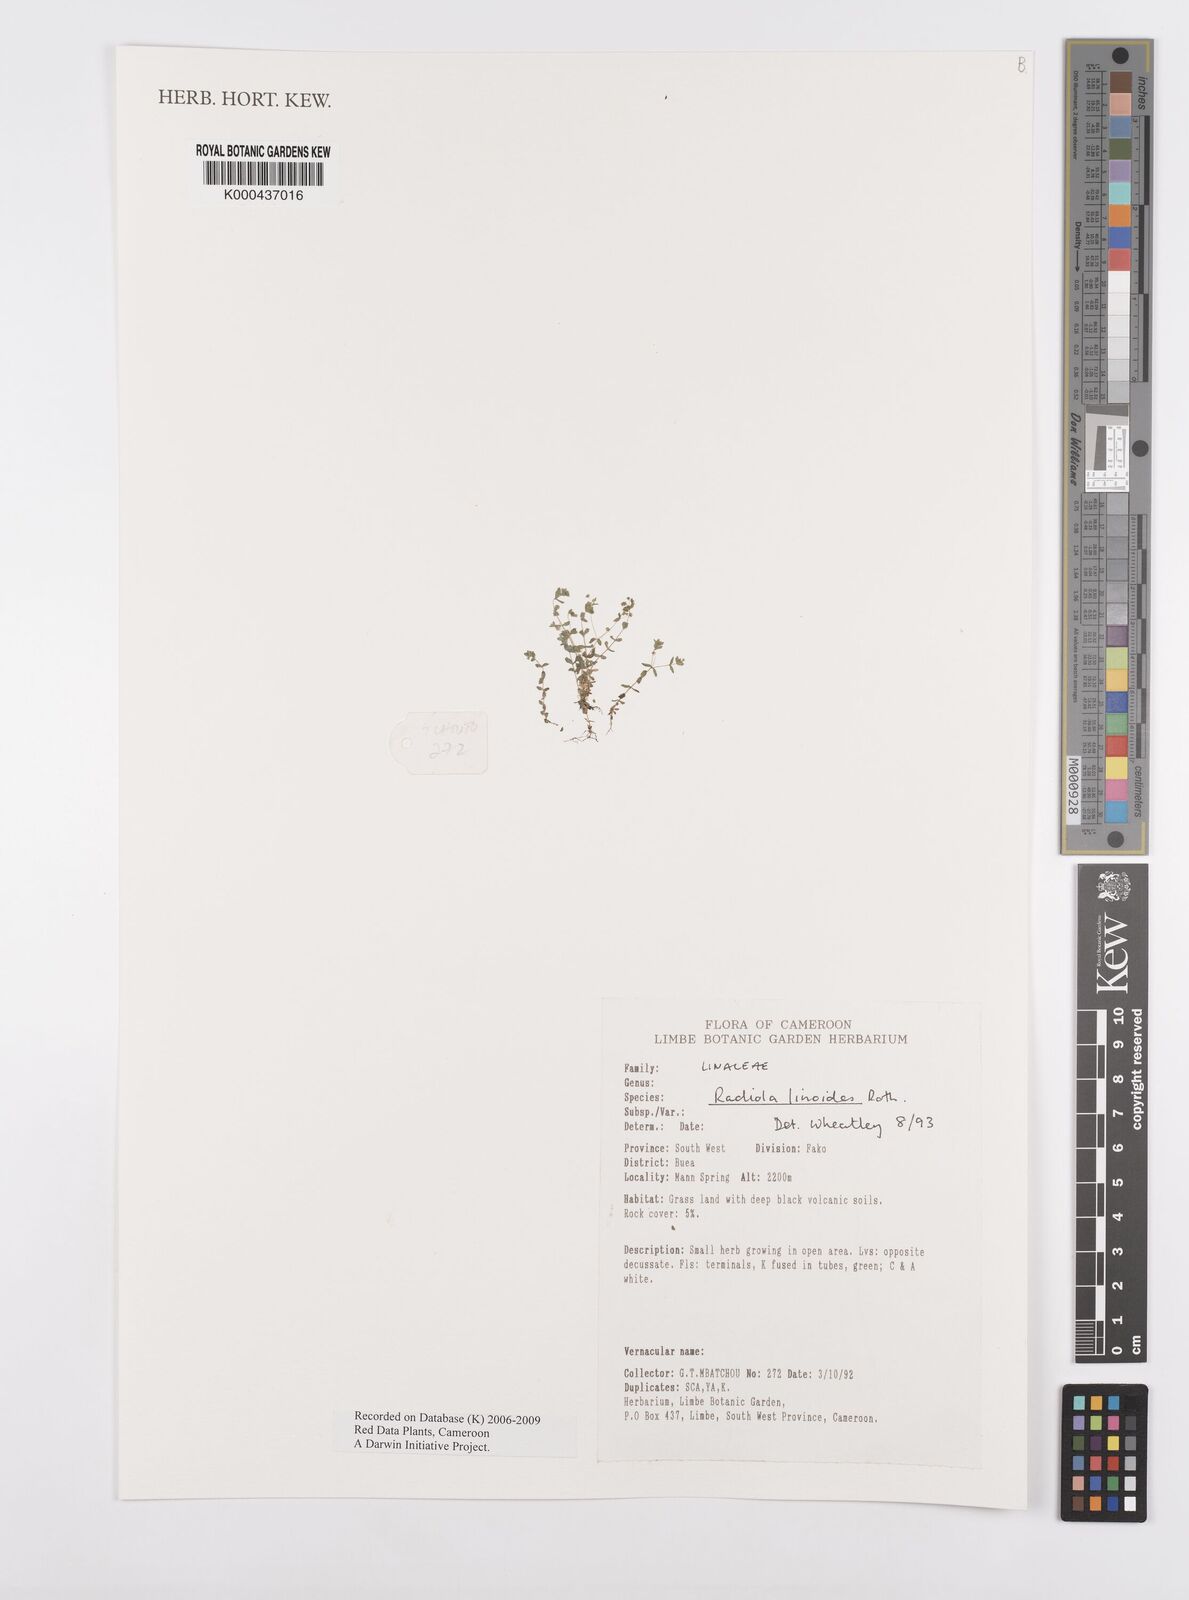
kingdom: Plantae
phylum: Tracheophyta
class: Magnoliopsida
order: Malpighiales
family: Linaceae
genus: Radiola
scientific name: Radiola linoides
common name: Allseed
